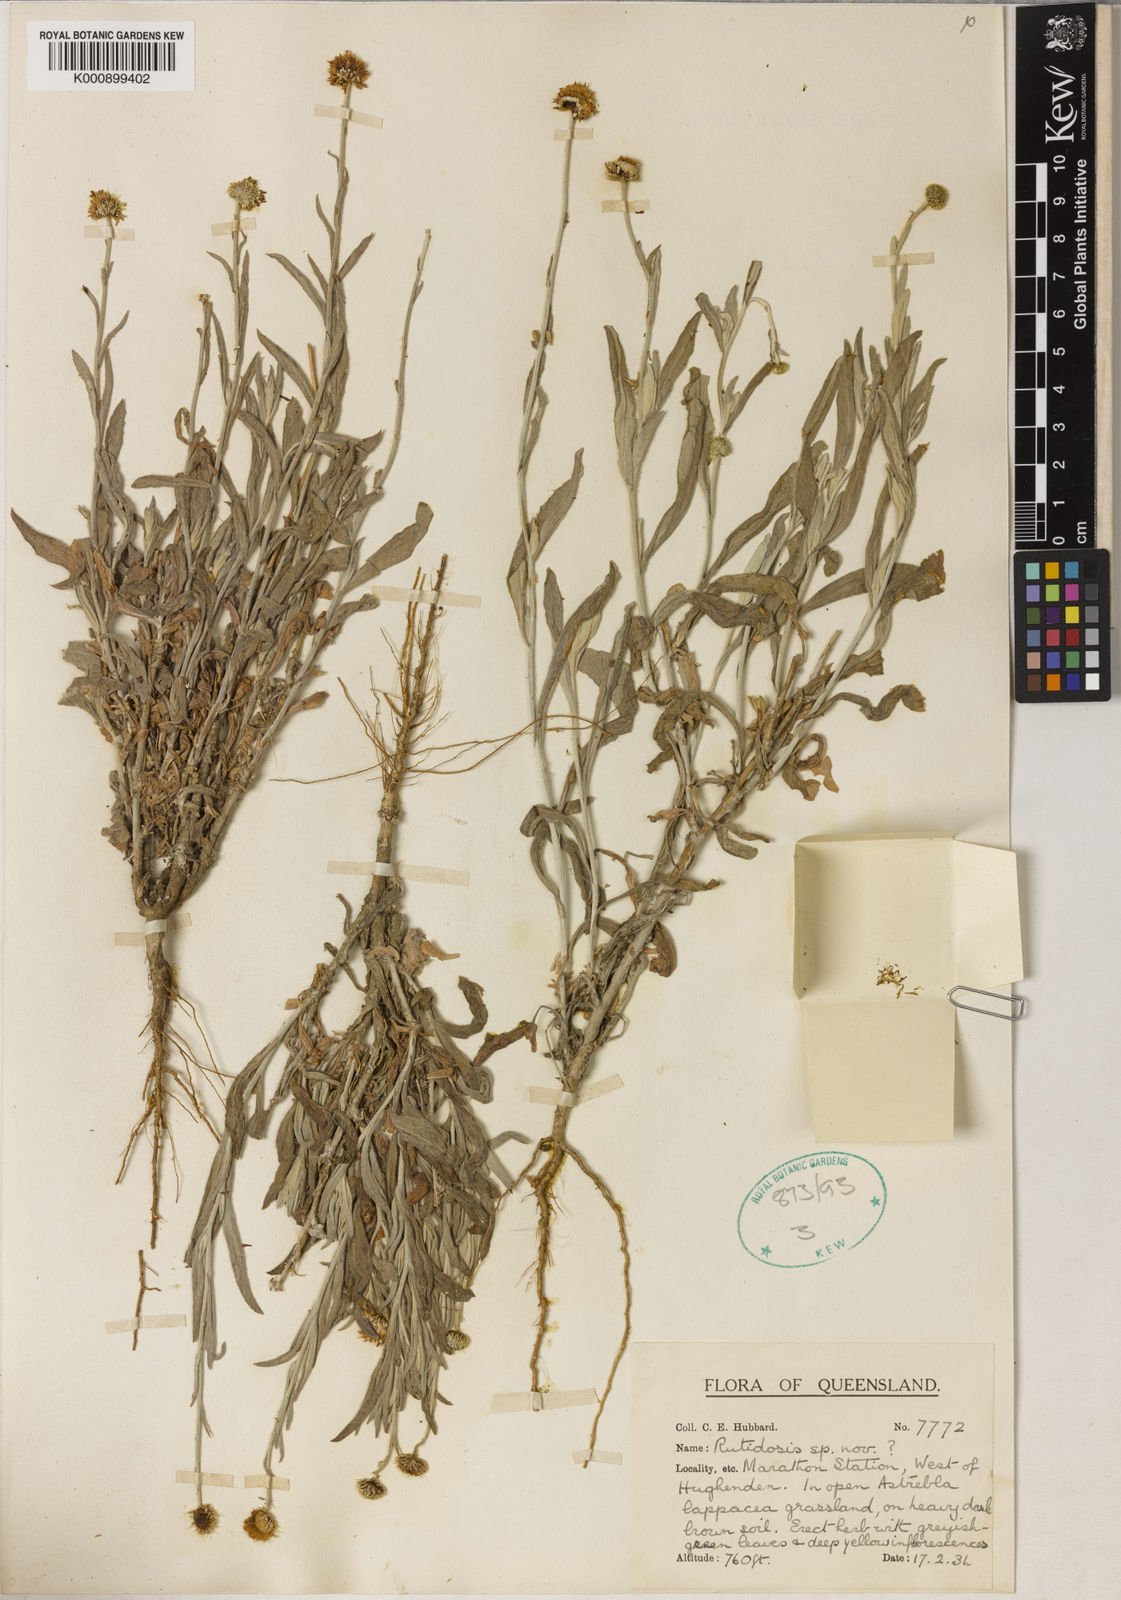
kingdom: Plantae
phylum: Tracheophyta
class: Magnoliopsida
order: Asterales
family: Asteraceae
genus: Rutidosis
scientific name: Rutidosis helichrysoides
